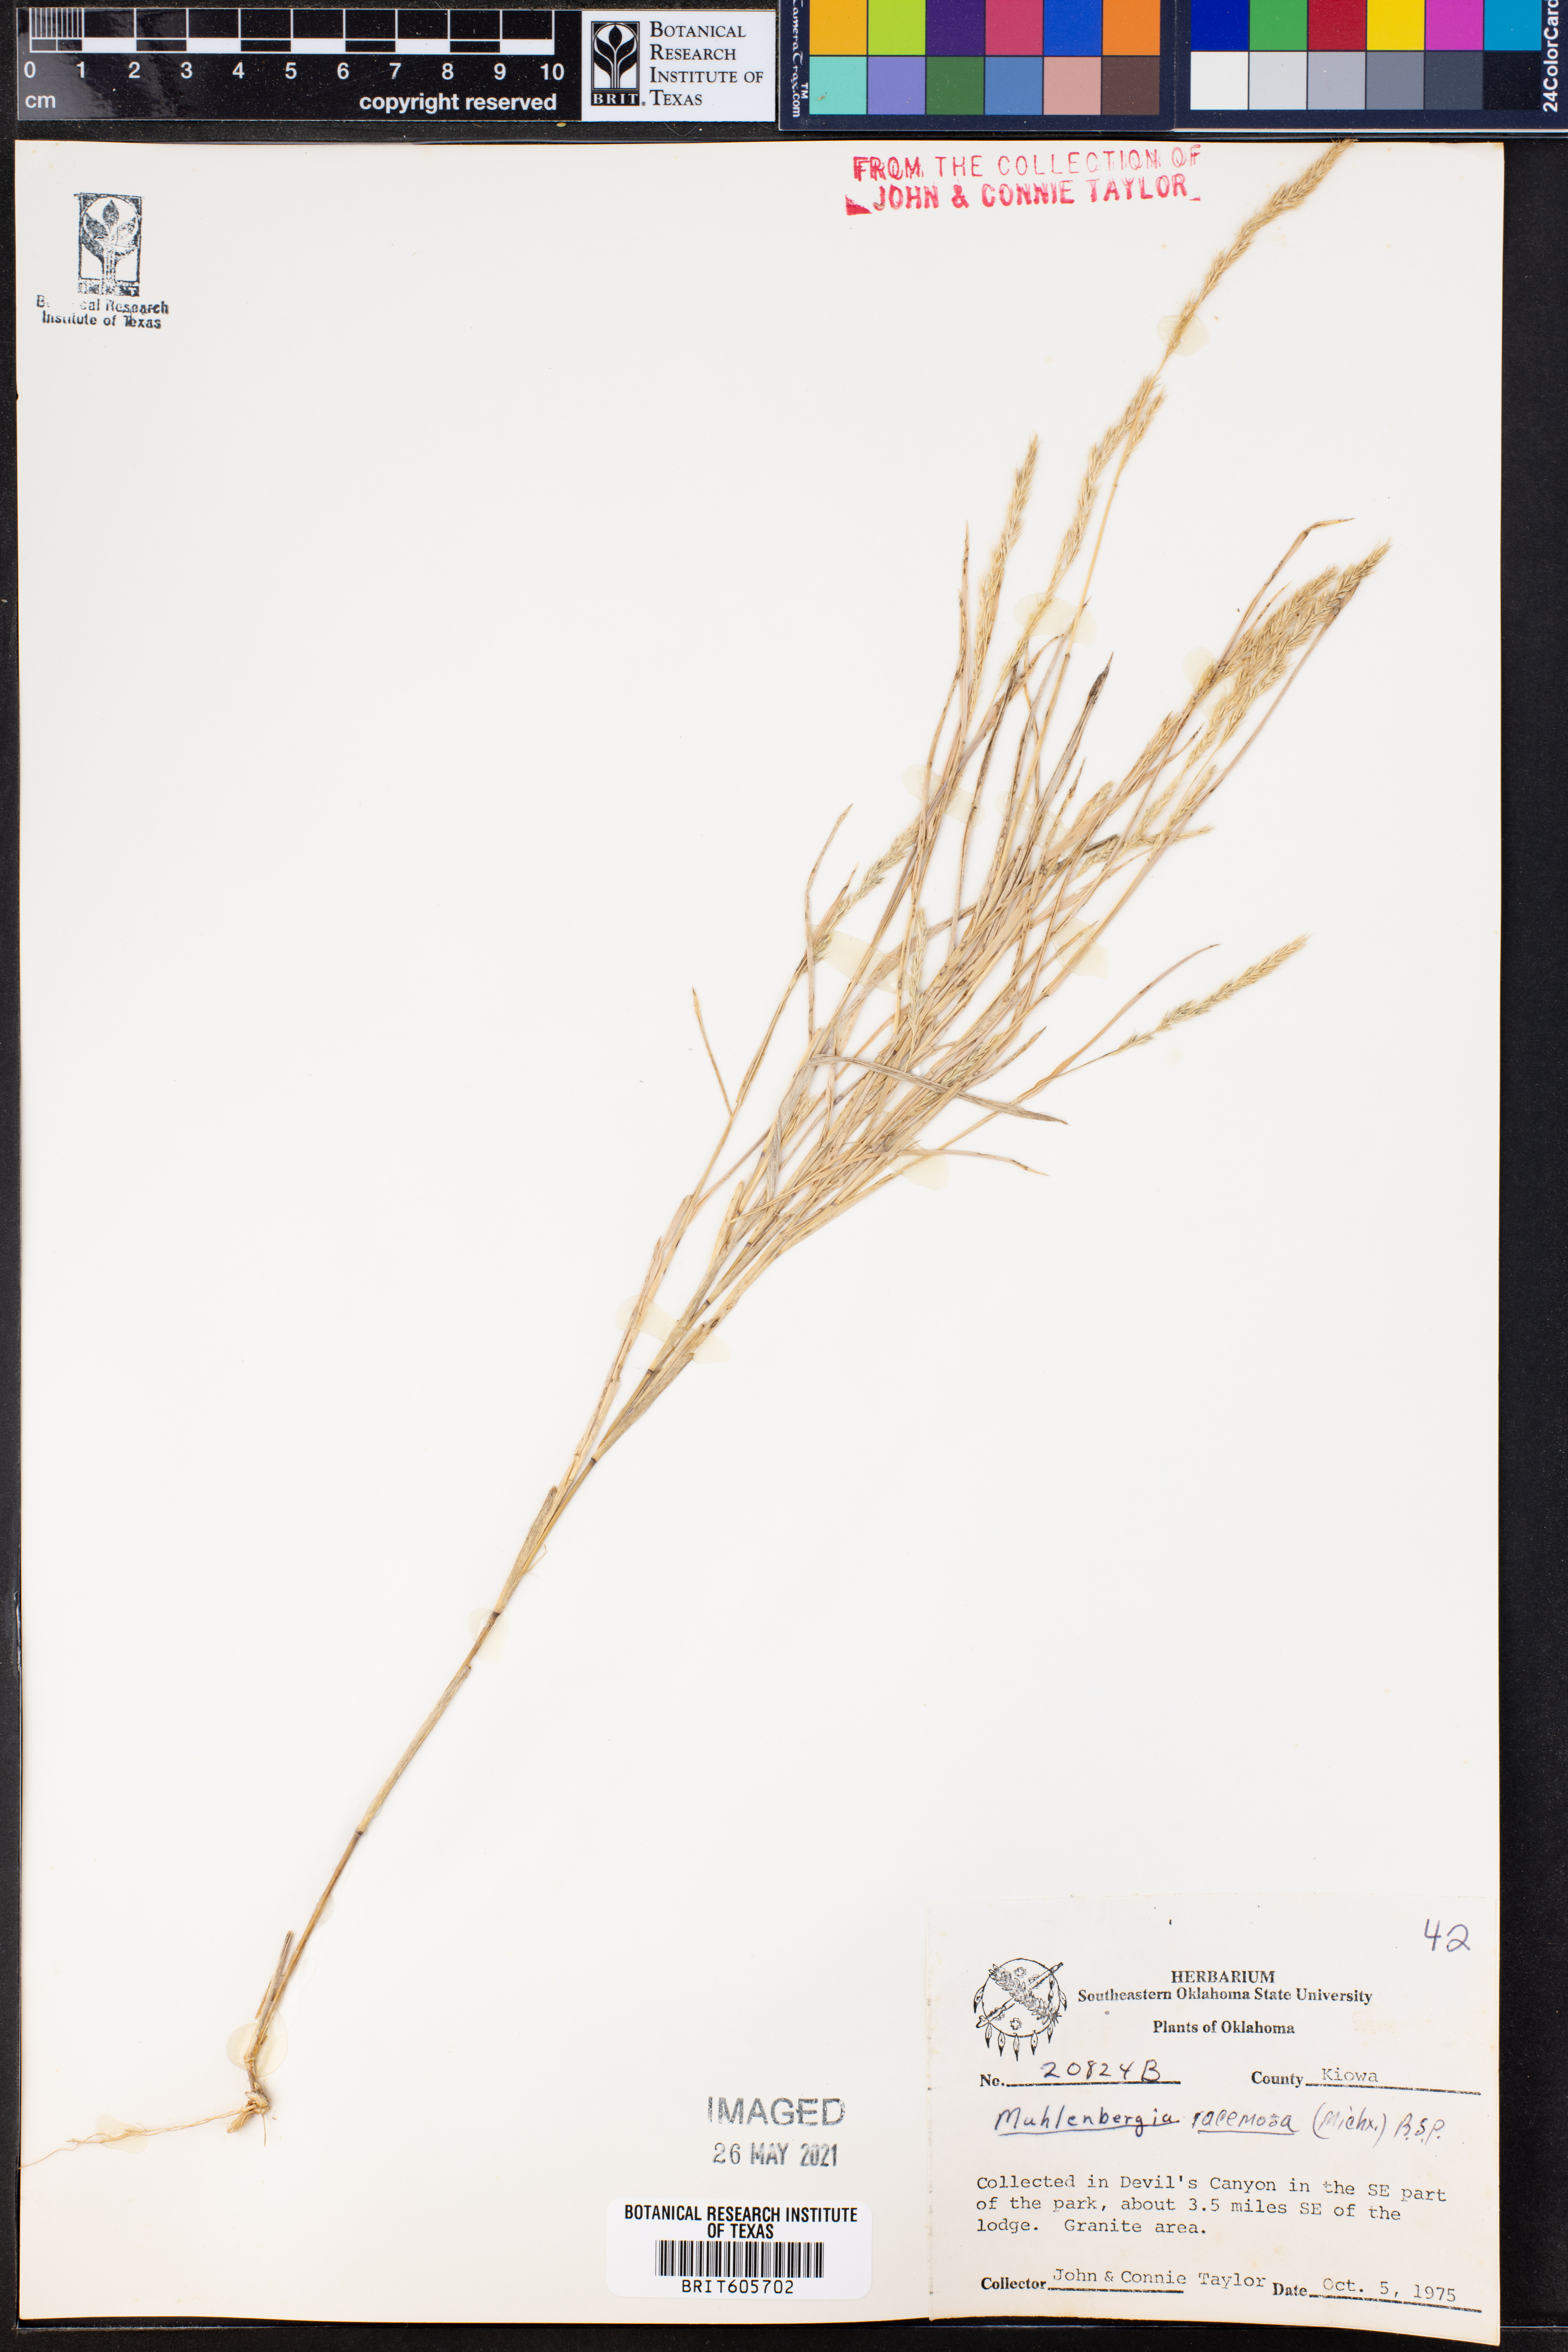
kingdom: Plantae
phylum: Tracheophyta
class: Liliopsida
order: Poales
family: Poaceae
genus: Muhlenbergia
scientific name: Muhlenbergia racemosa
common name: Green muhly
